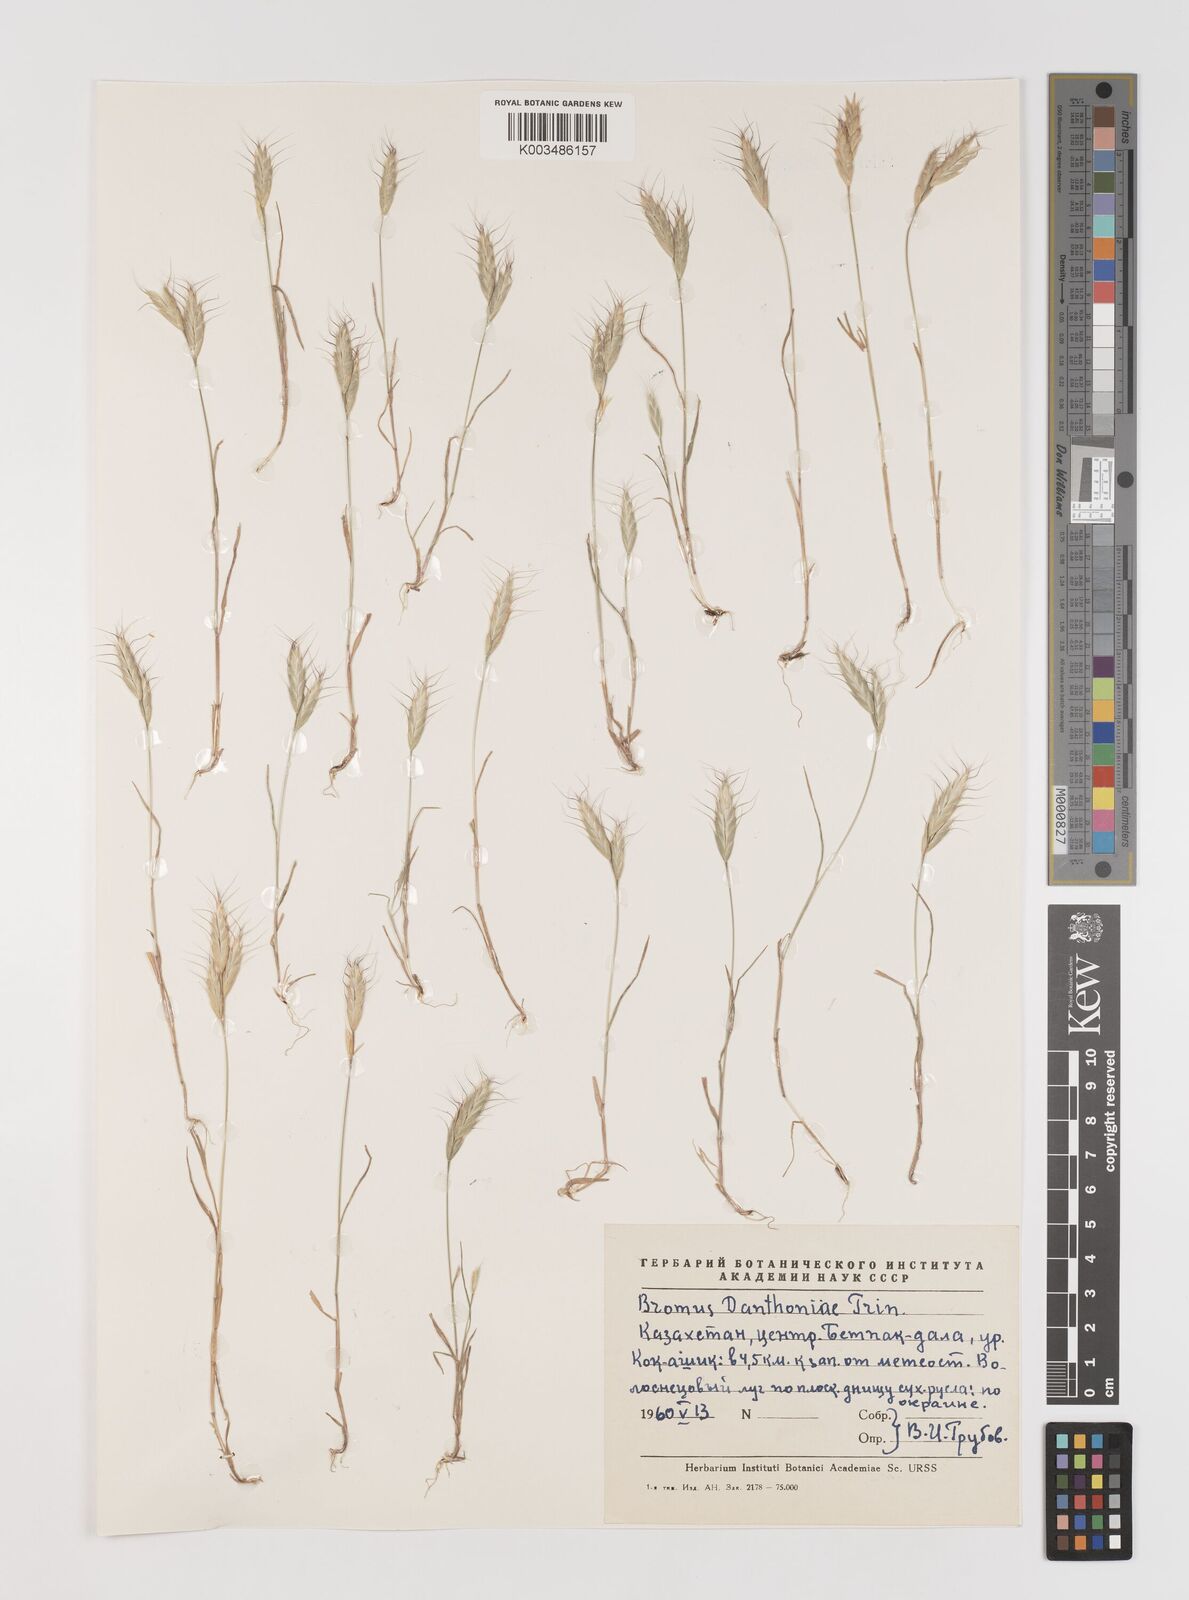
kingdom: Plantae
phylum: Tracheophyta
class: Liliopsida
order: Poales
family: Poaceae
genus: Bromus
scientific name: Bromus danthoniae
